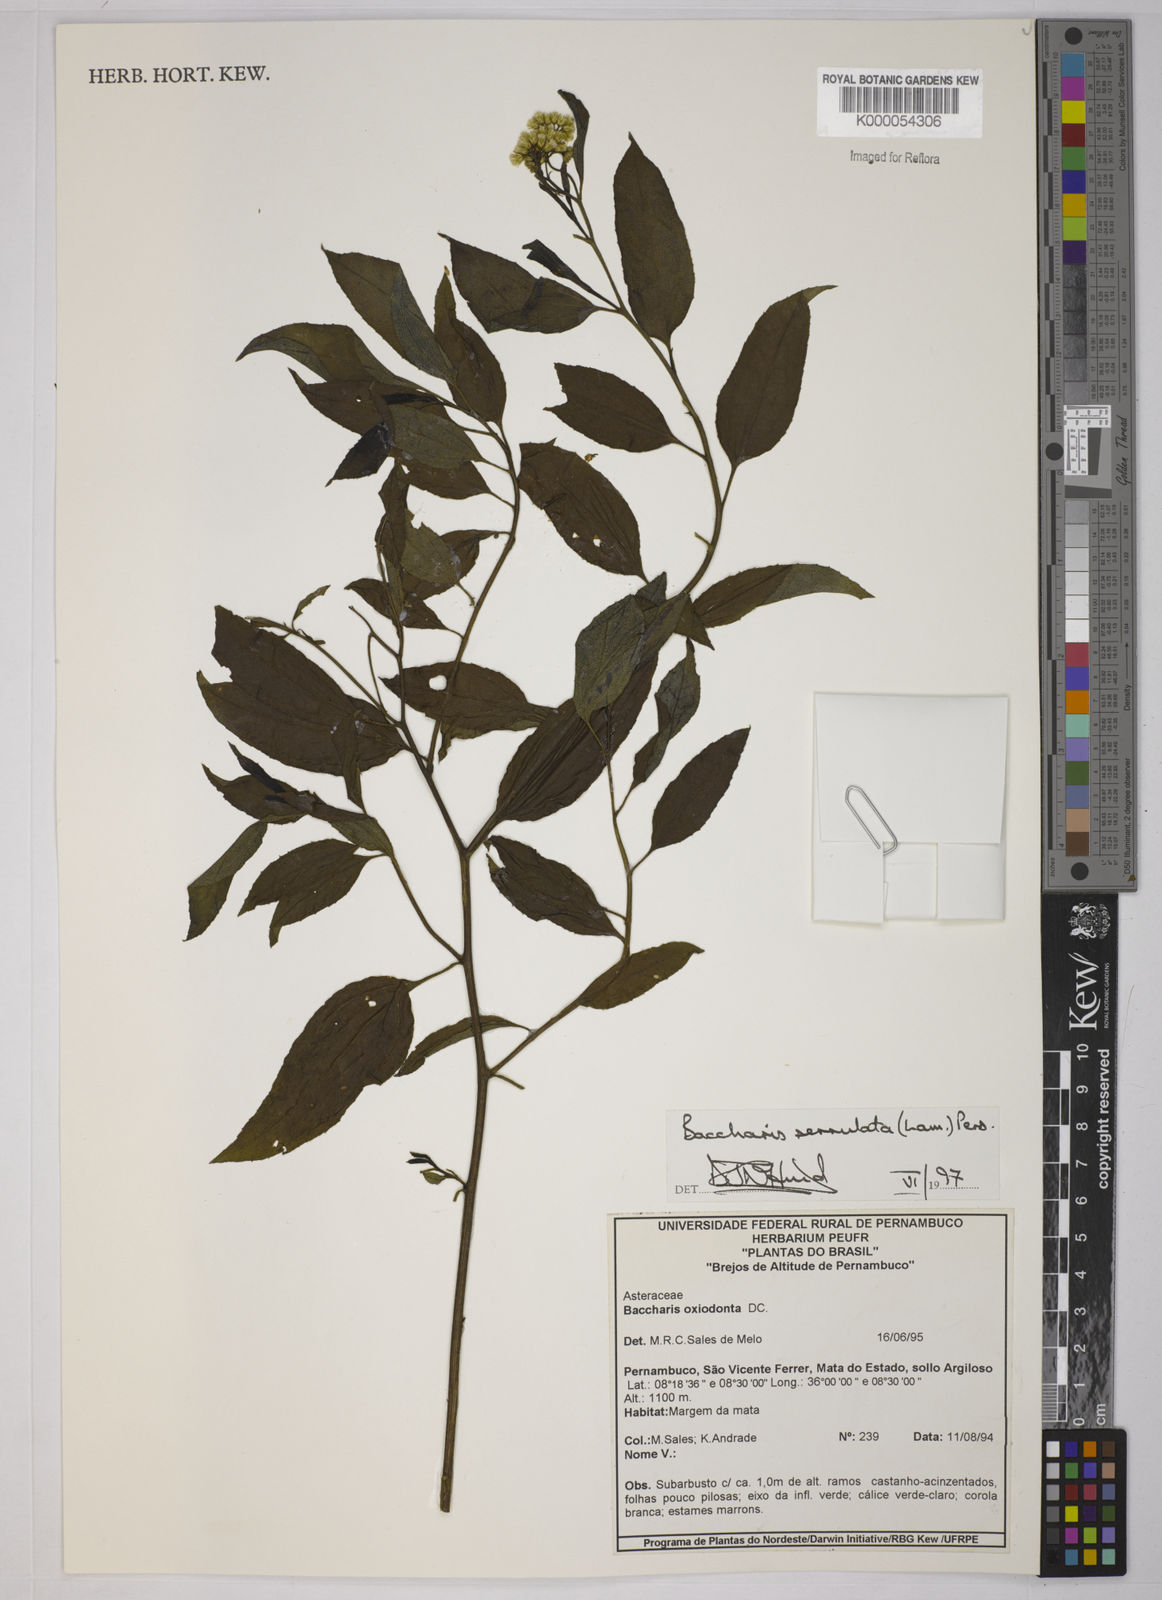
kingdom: Plantae
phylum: Tracheophyta
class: Magnoliopsida
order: Asterales
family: Asteraceae
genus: Baccharis
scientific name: Baccharis serrulata
